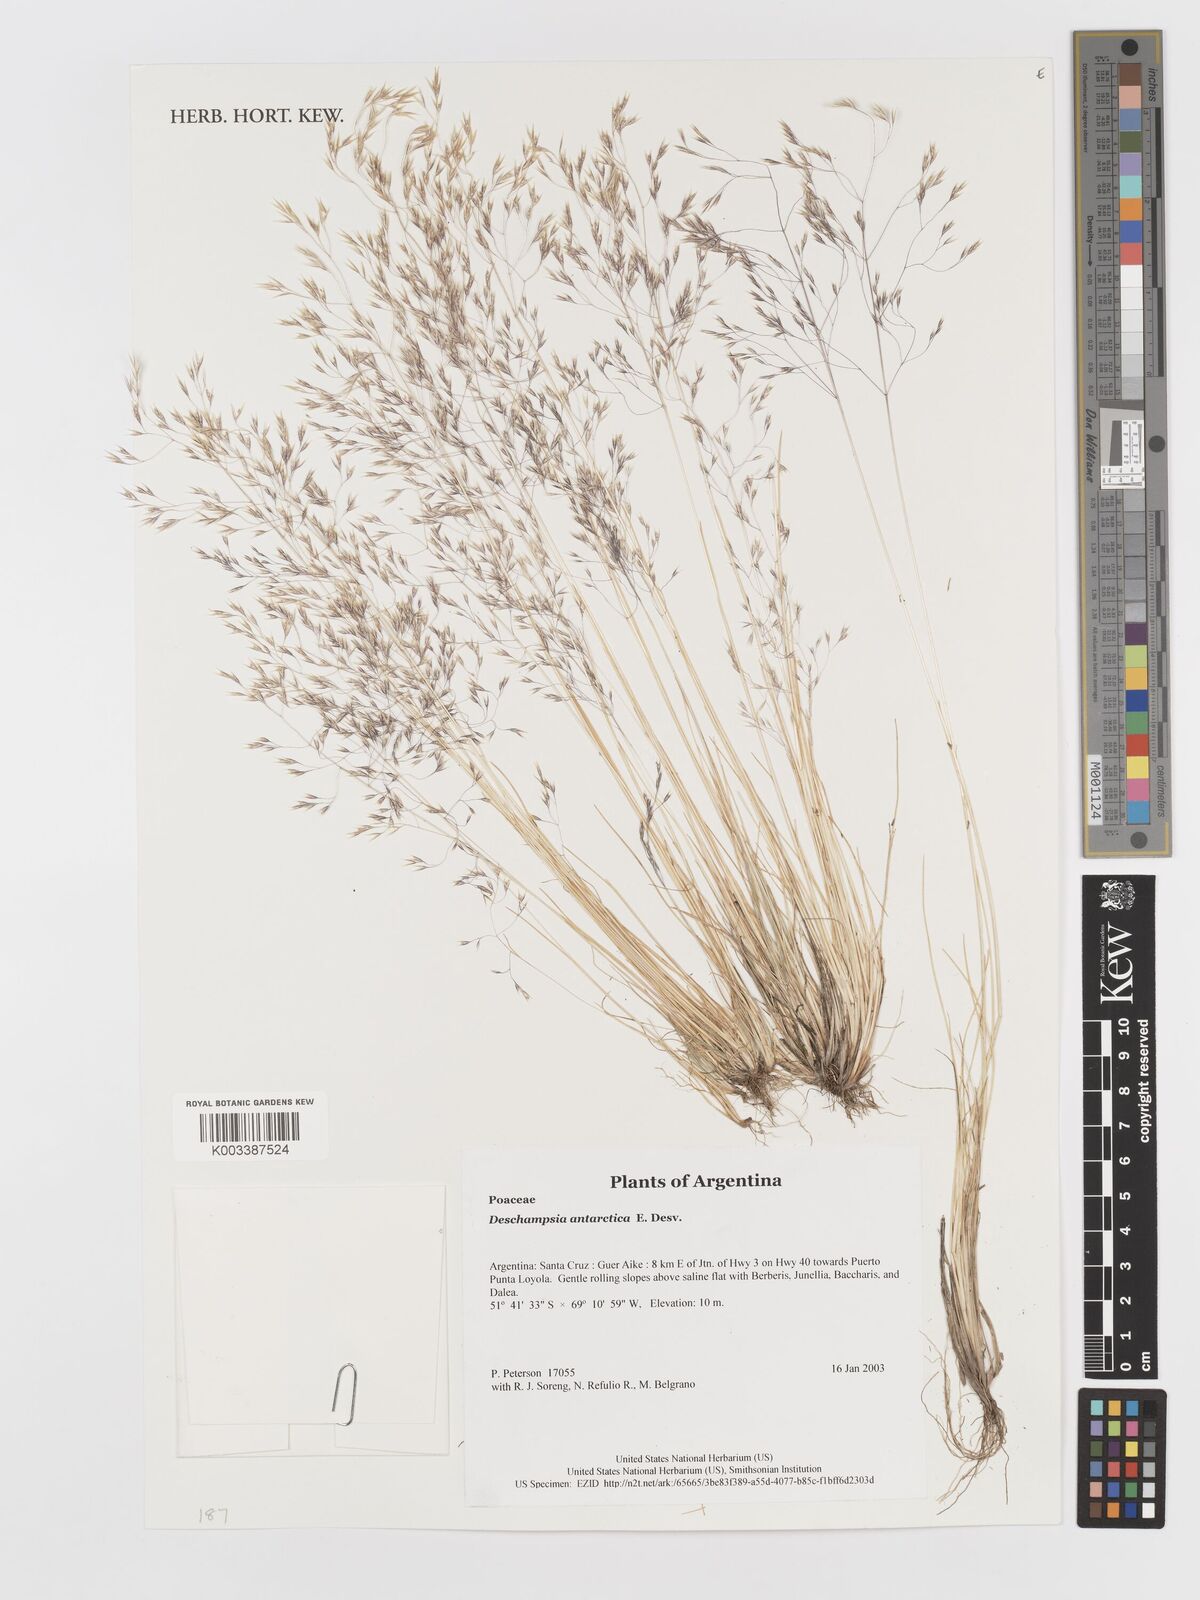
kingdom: Plantae
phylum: Tracheophyta
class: Liliopsida
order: Poales
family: Poaceae
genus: Deschampsia
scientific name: Deschampsia antarctica
